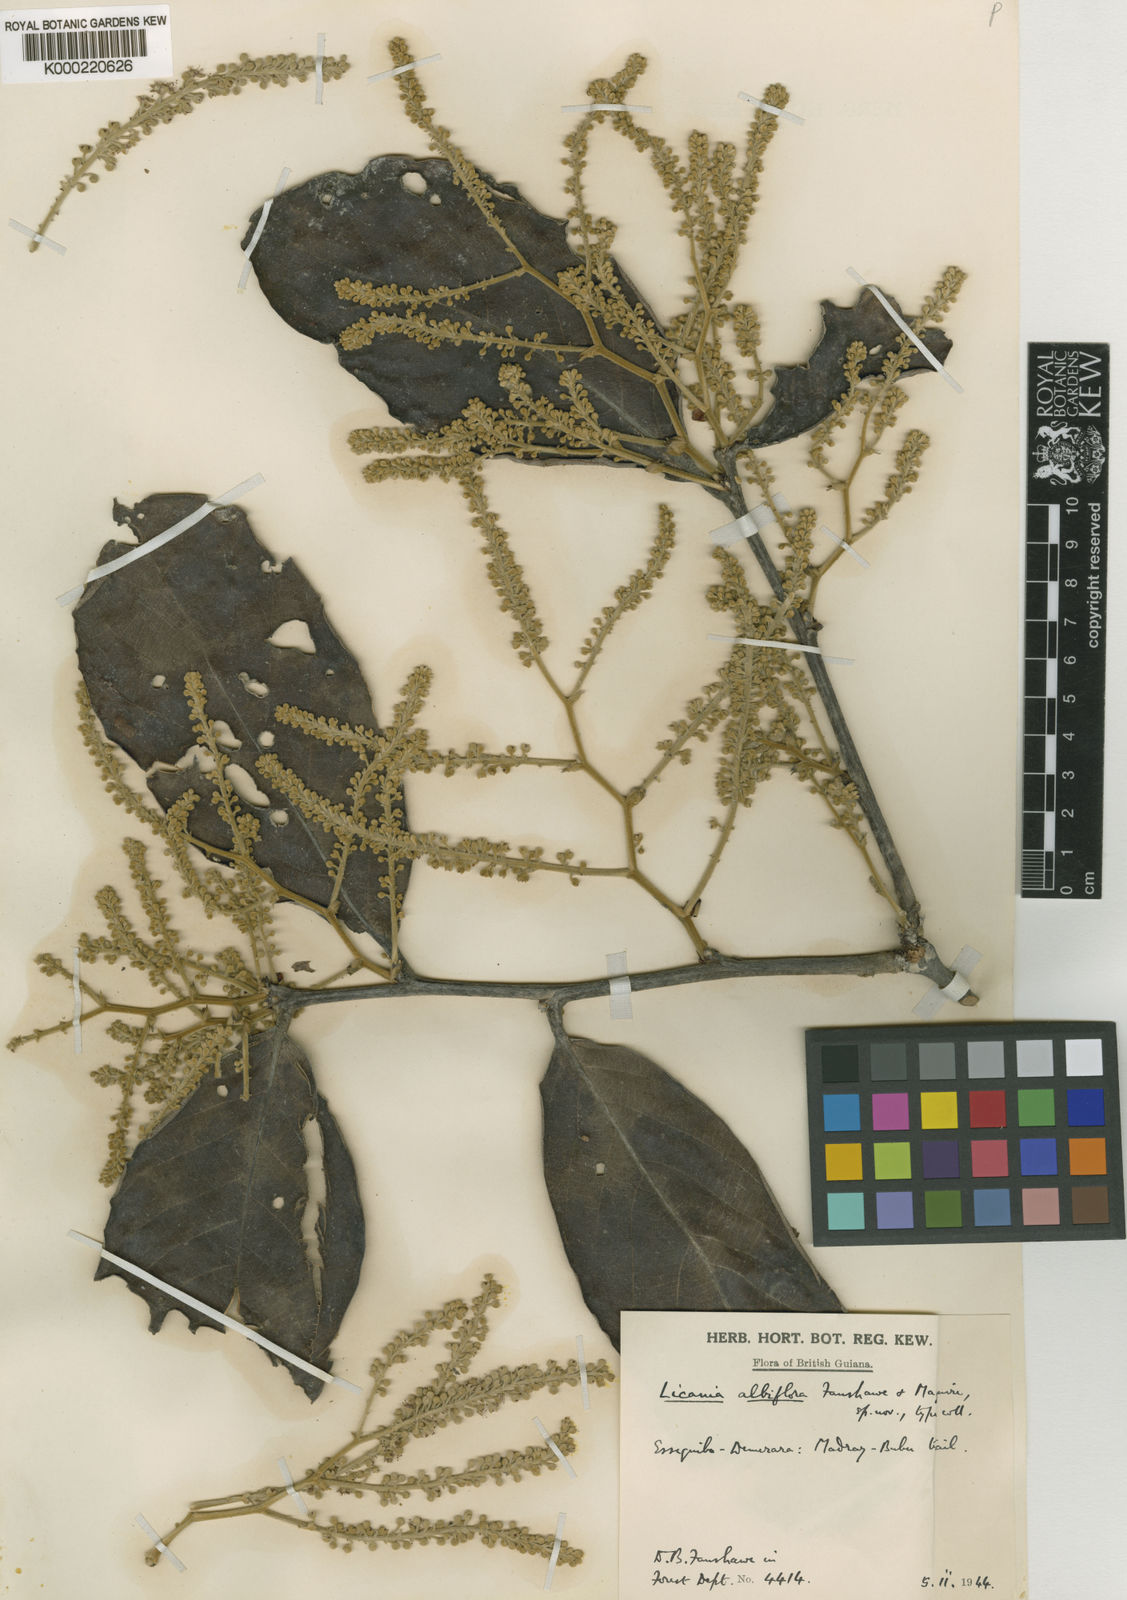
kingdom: Plantae
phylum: Tracheophyta
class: Magnoliopsida
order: Malpighiales
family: Chrysobalanaceae
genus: Leptobalanus
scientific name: Leptobalanus albiflorus
